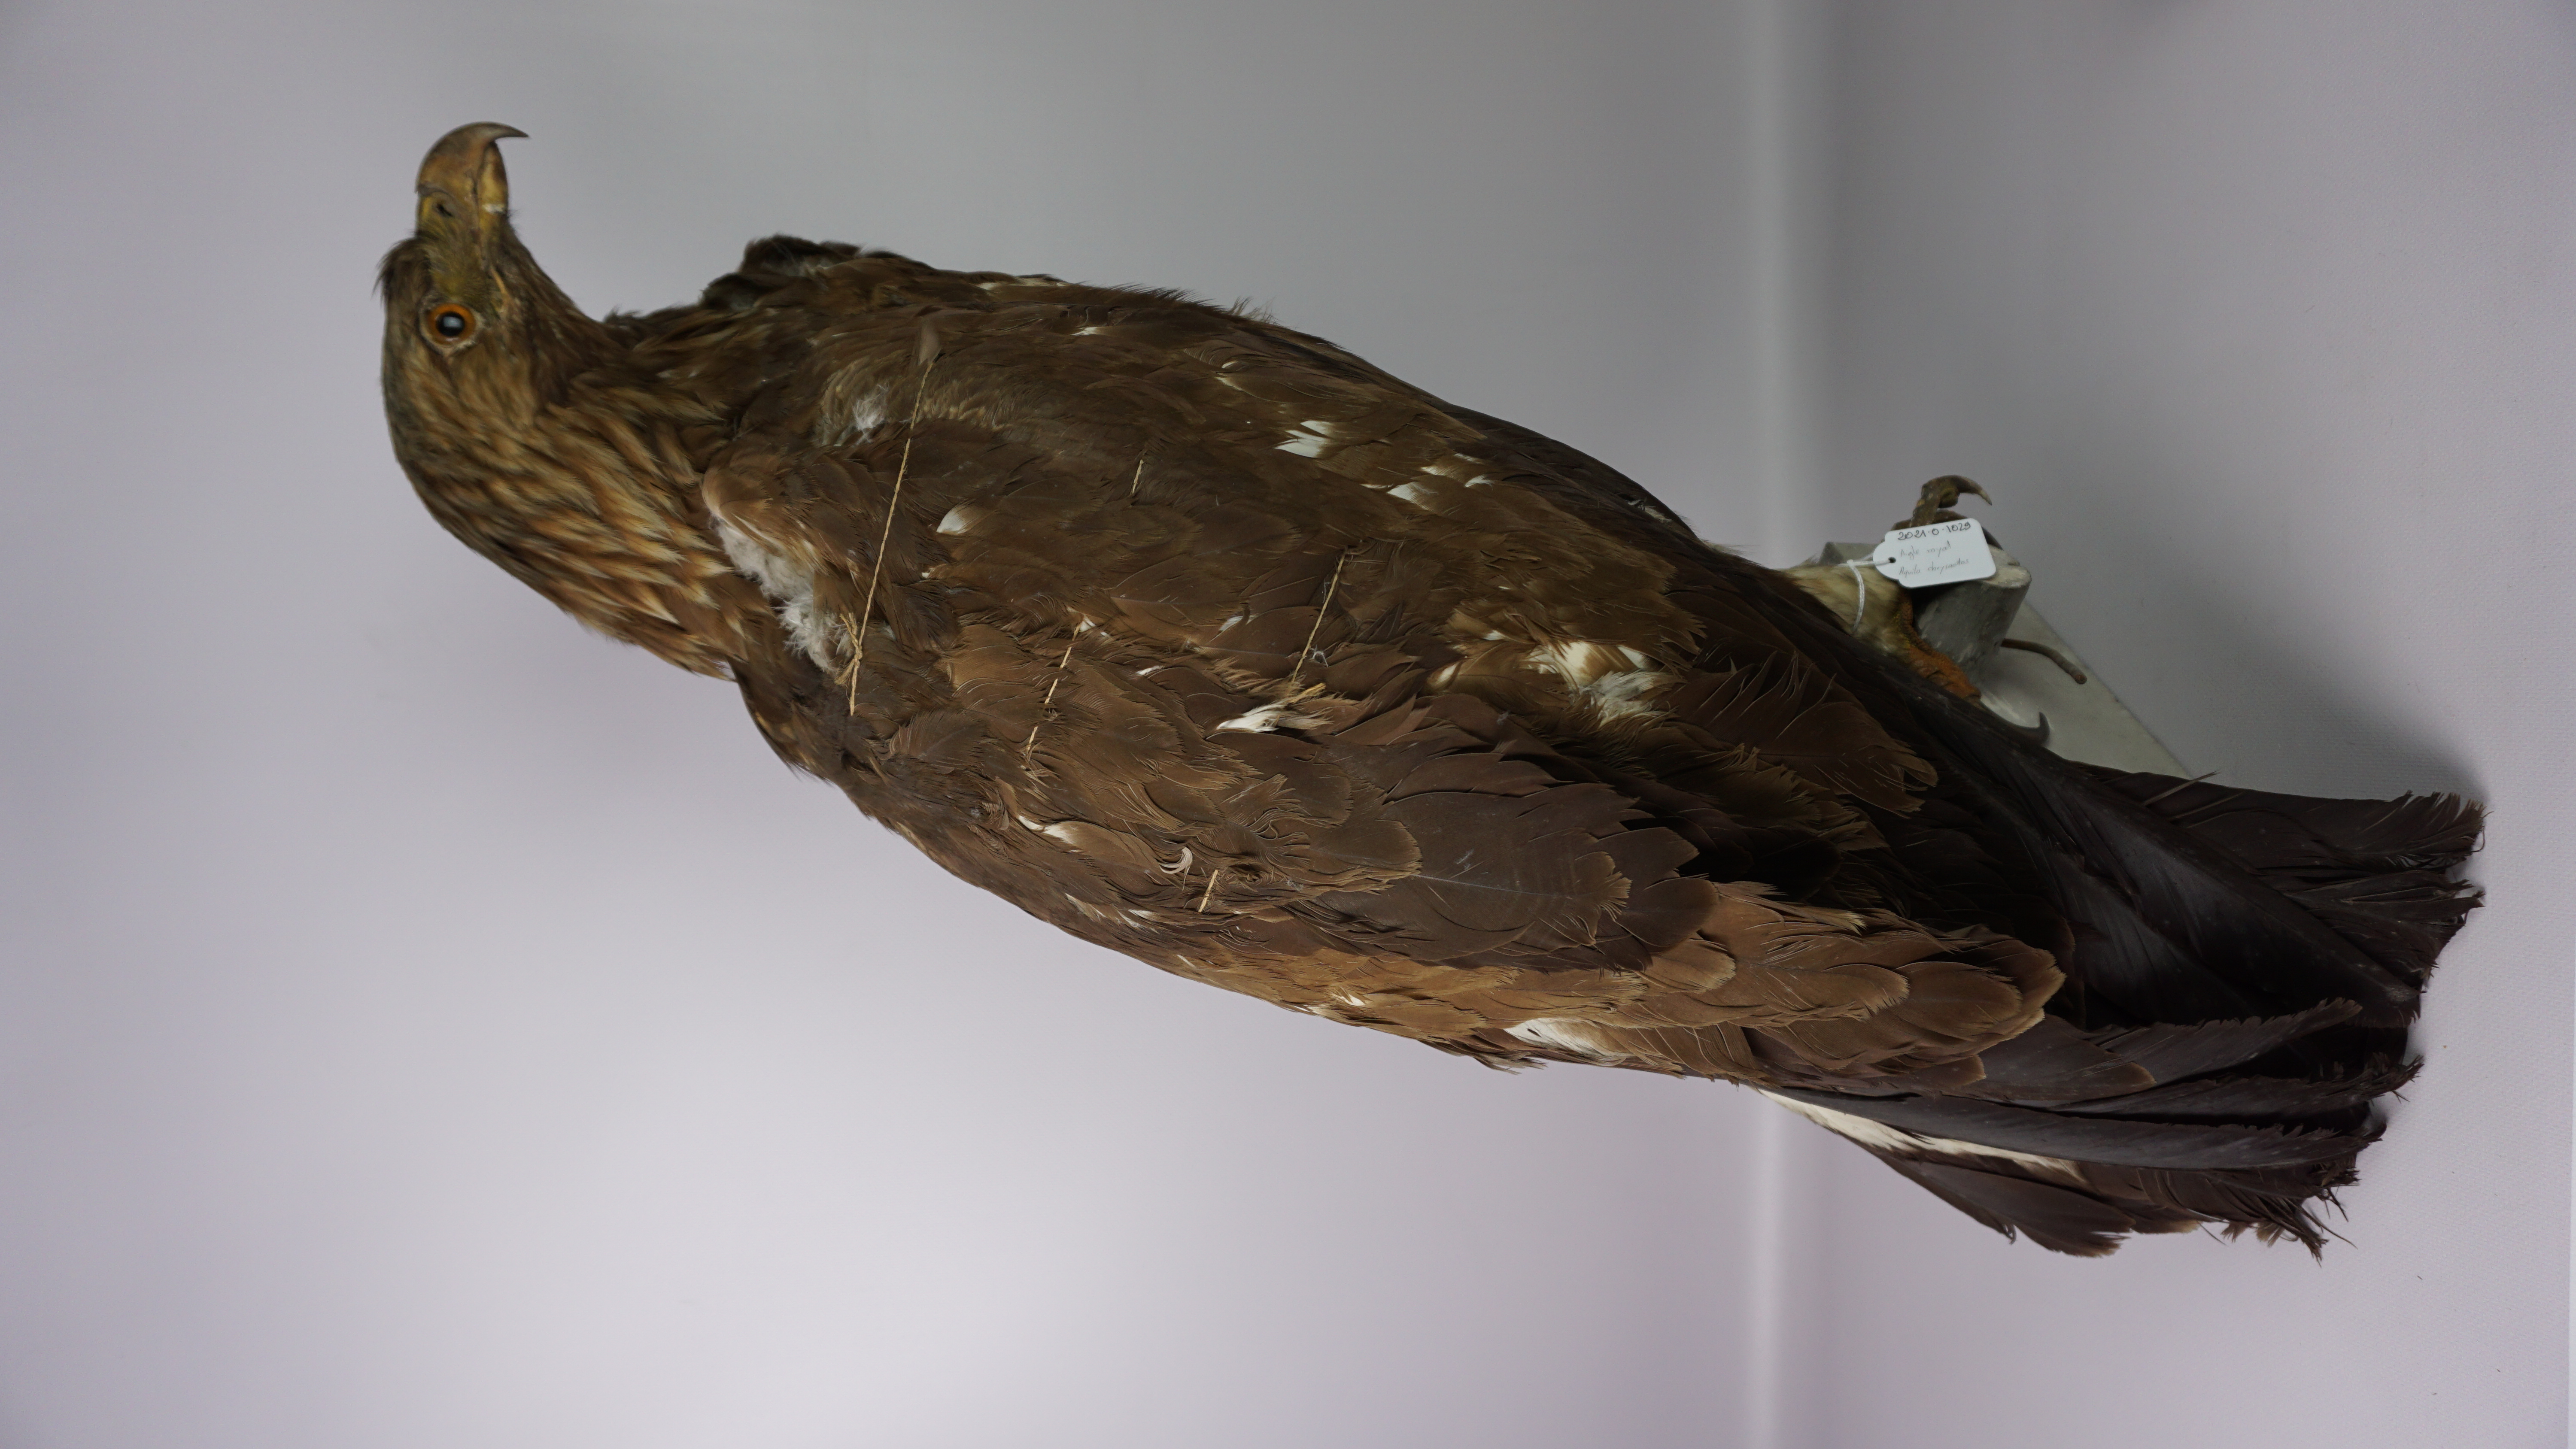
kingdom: Animalia
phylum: Chordata
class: Aves
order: Accipitriformes
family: Accipitridae
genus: Aquila
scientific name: Aquila chrysaetos
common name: Golden eagle
